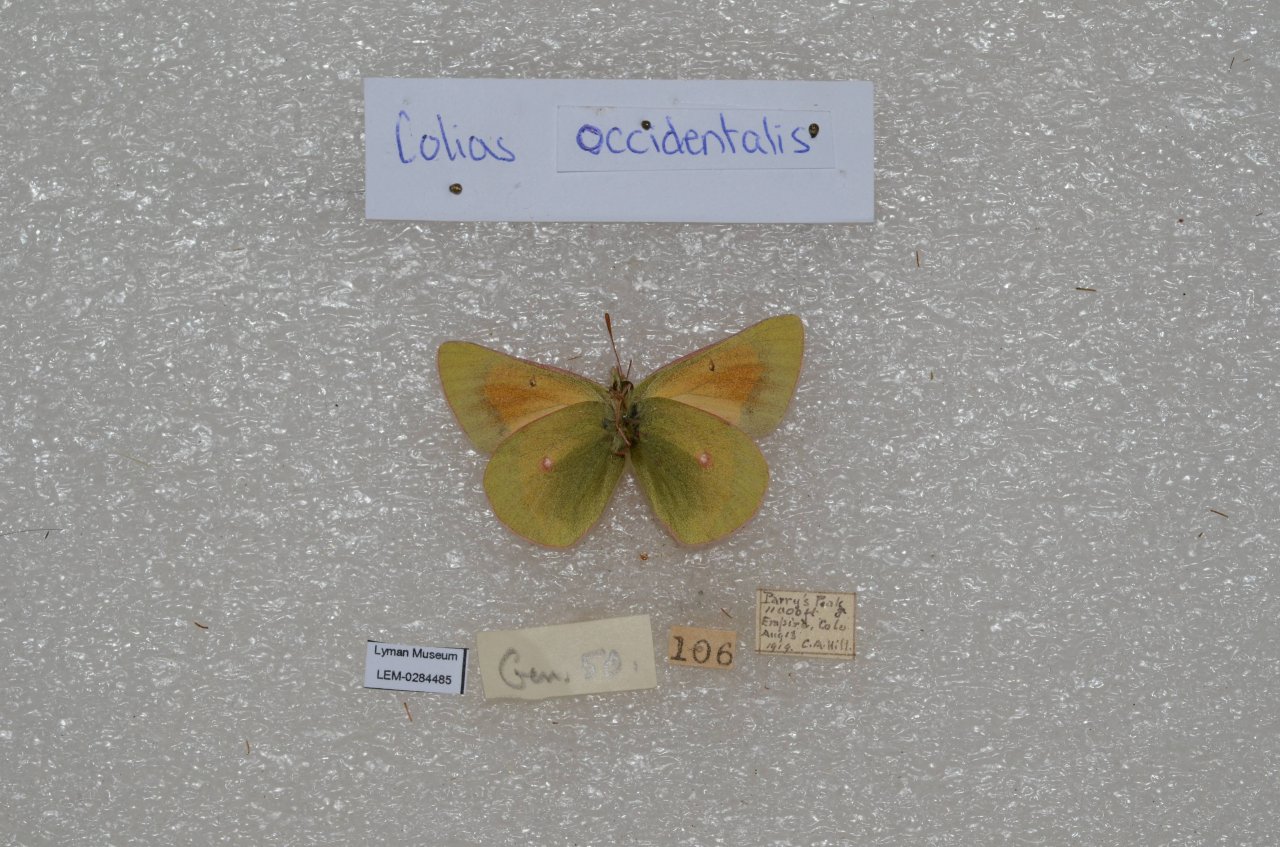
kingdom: Animalia
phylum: Arthropoda
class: Insecta
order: Lepidoptera
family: Pieridae
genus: Pontia
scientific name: Pontia occidentalis
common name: Western White
